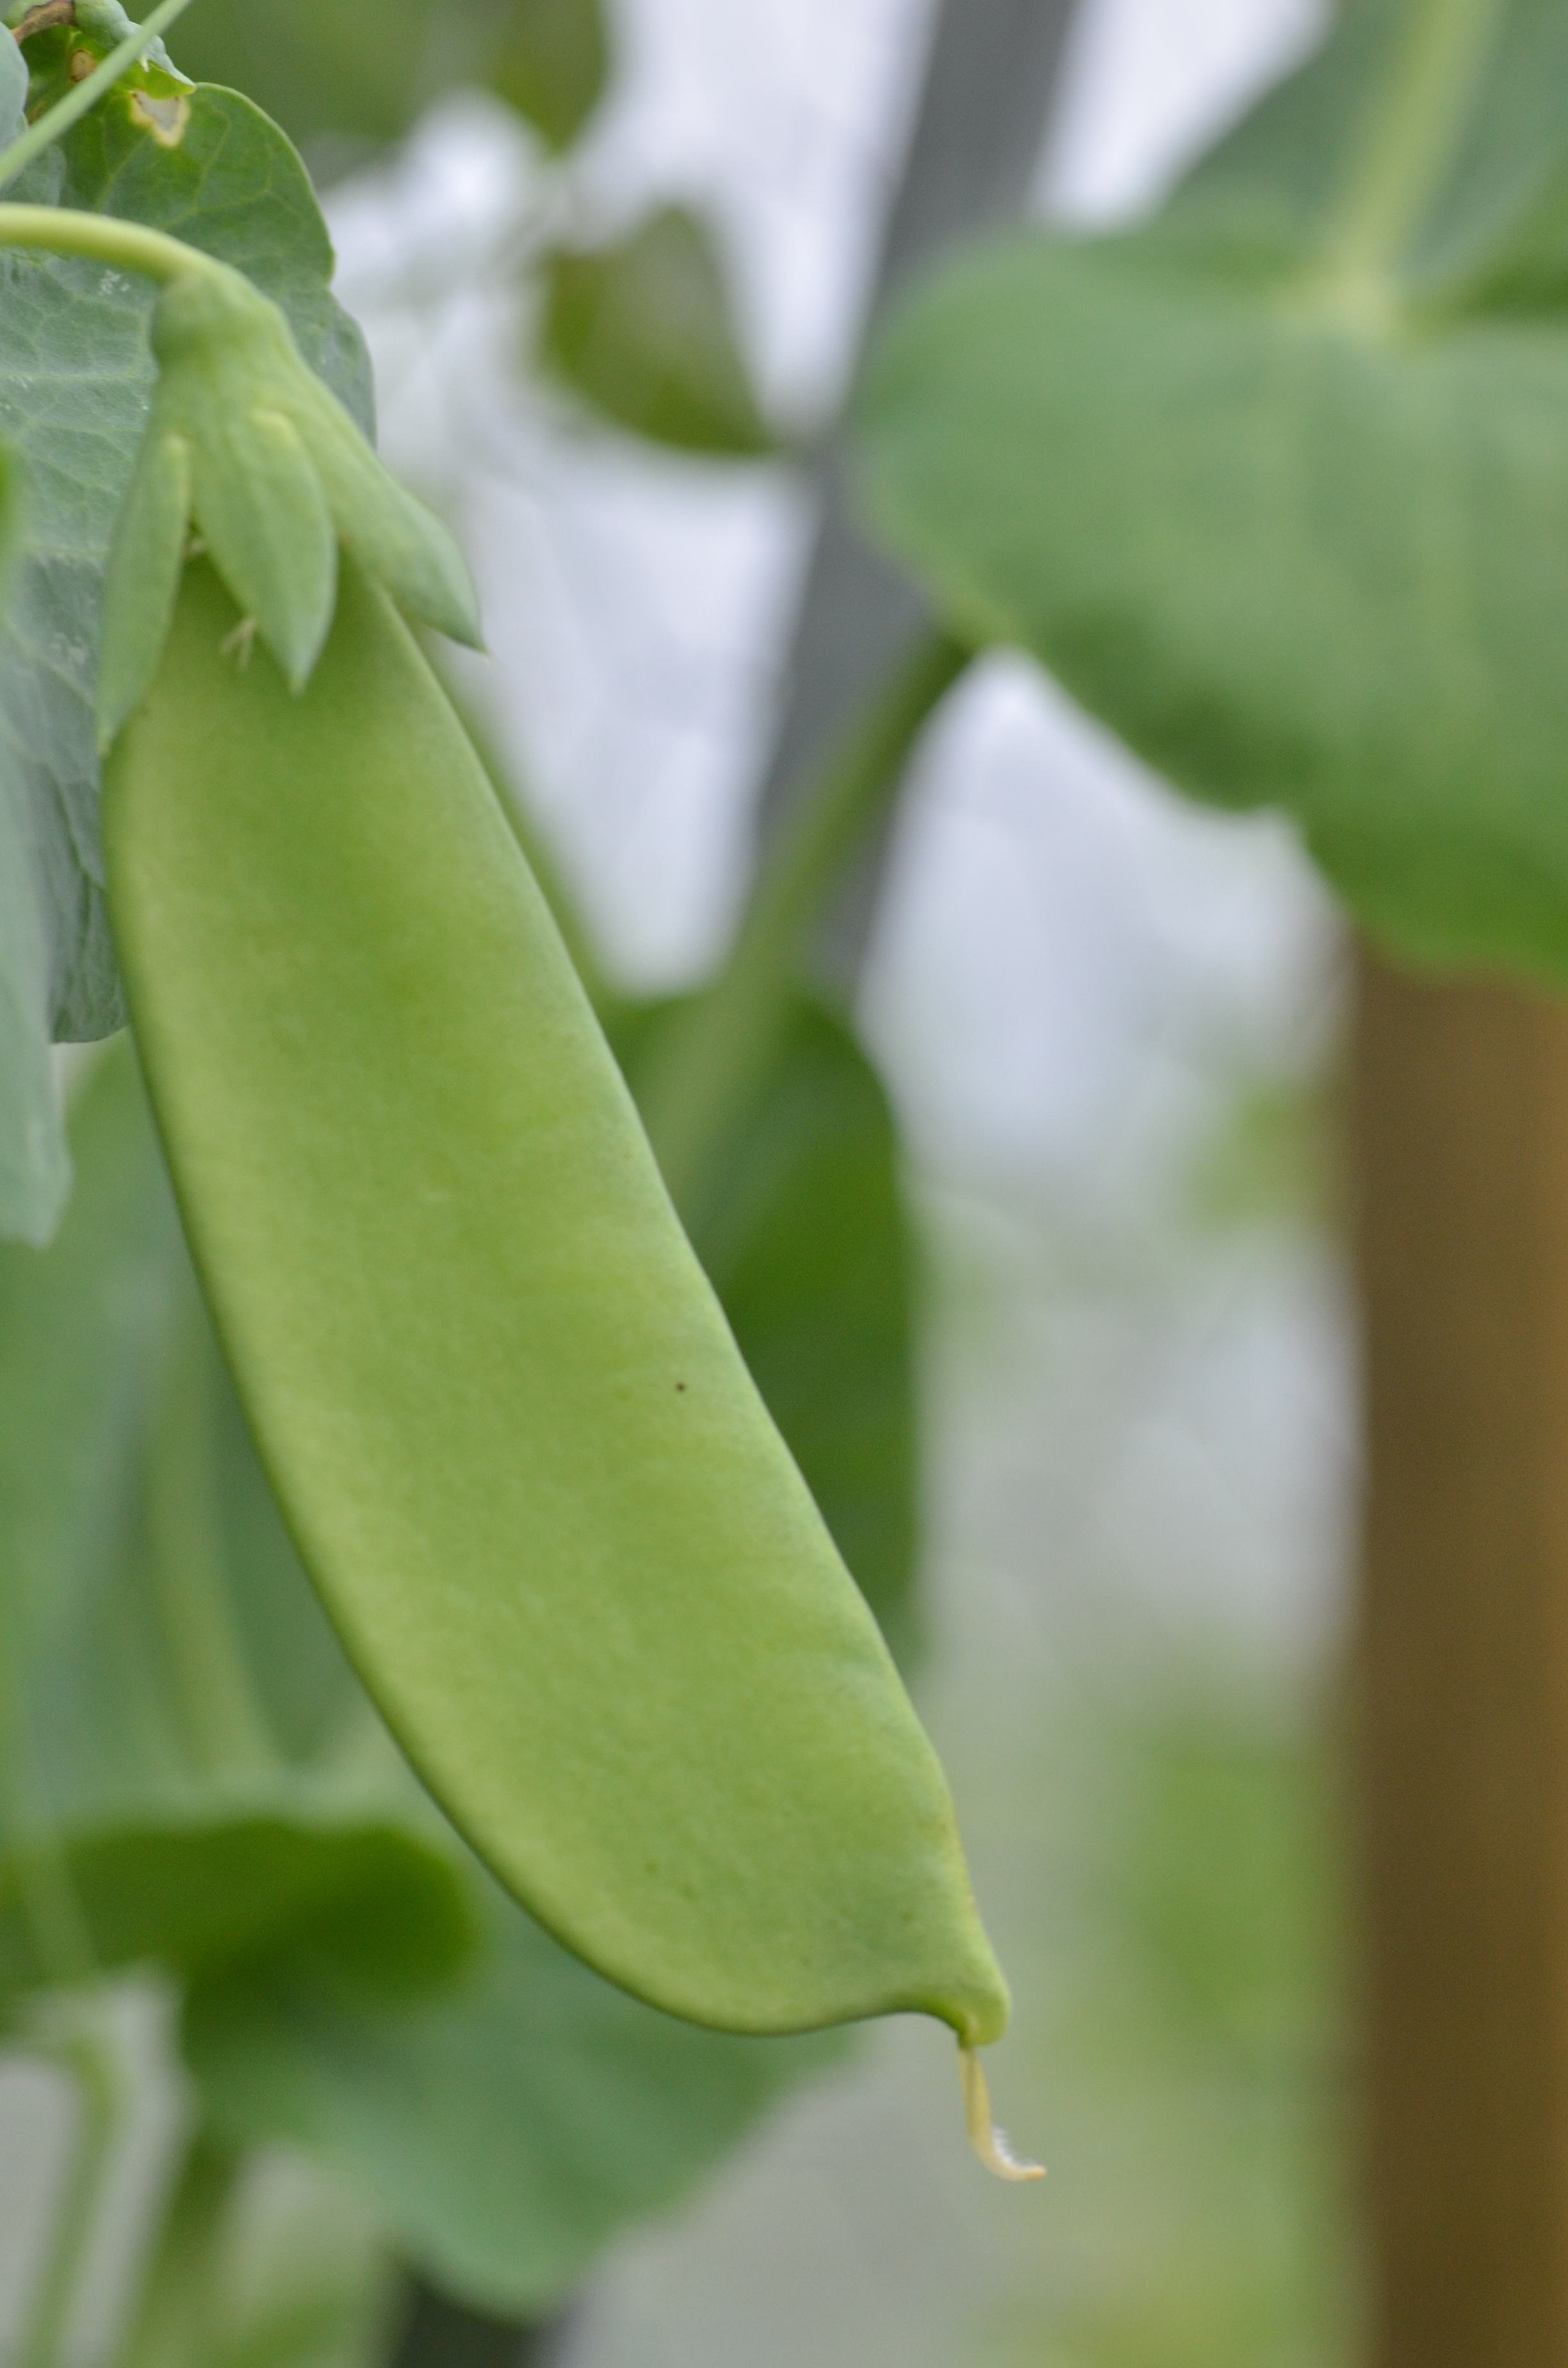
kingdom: Plantae
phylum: Tracheophyta
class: Magnoliopsida
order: Fabales
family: Fabaceae
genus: Lathyrus
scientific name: Lathyrus oleraceus
